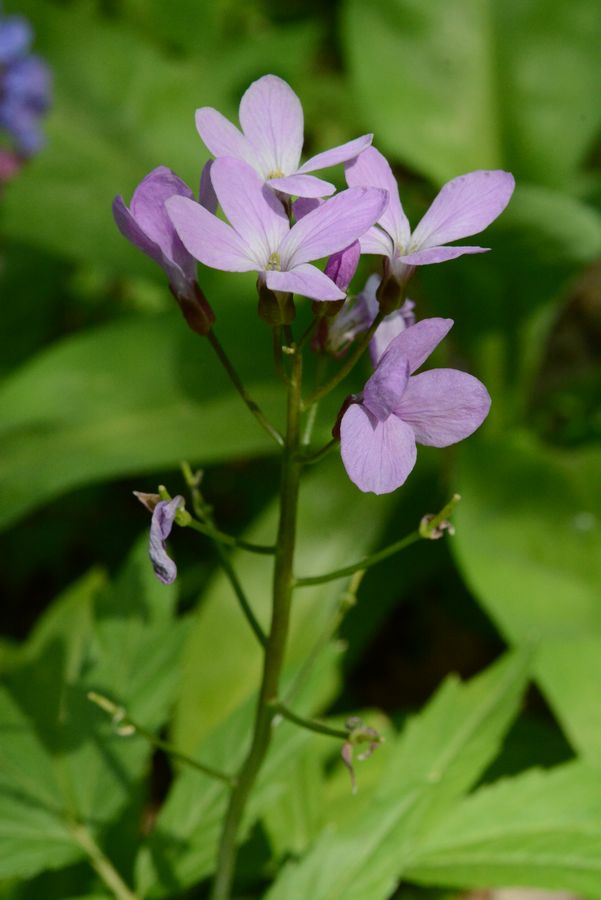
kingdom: Plantae
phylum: Tracheophyta
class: Magnoliopsida
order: Brassicales
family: Brassicaceae
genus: Cardamine
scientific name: Cardamine quinquefolia
